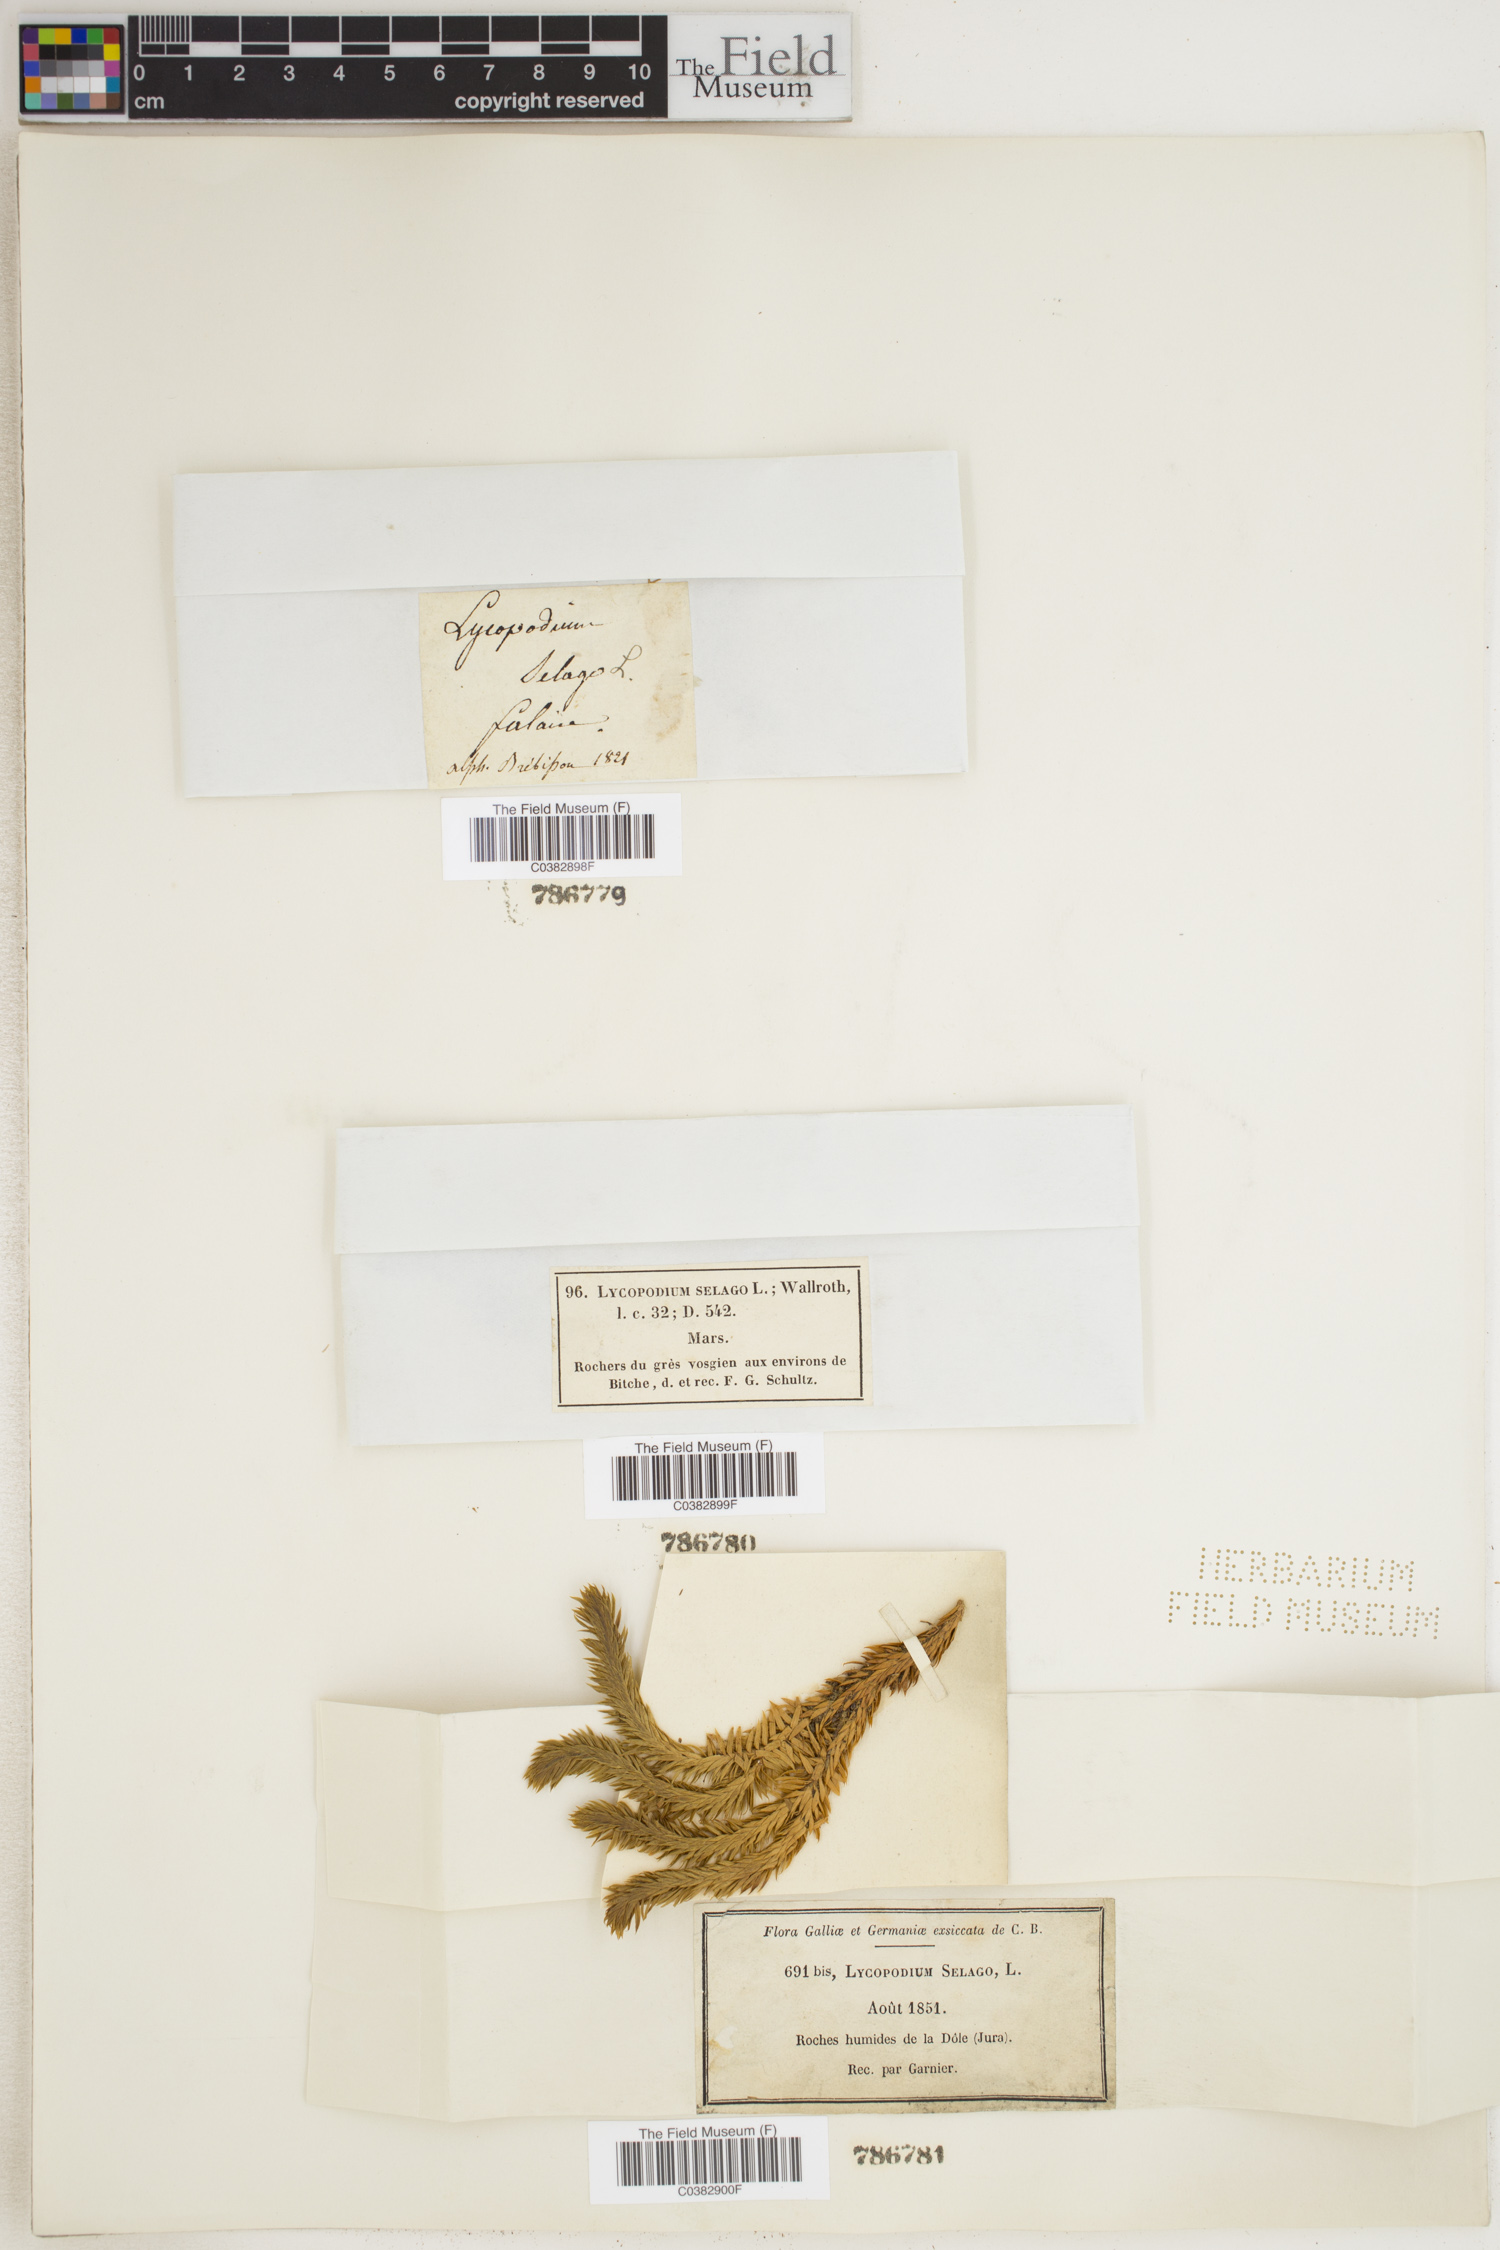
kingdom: Plantae
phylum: Tracheophyta
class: Lycopodiopsida
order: Lycopodiales
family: Lycopodiaceae
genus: Huperzia
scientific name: Huperzia selago
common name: Northern firmoss
